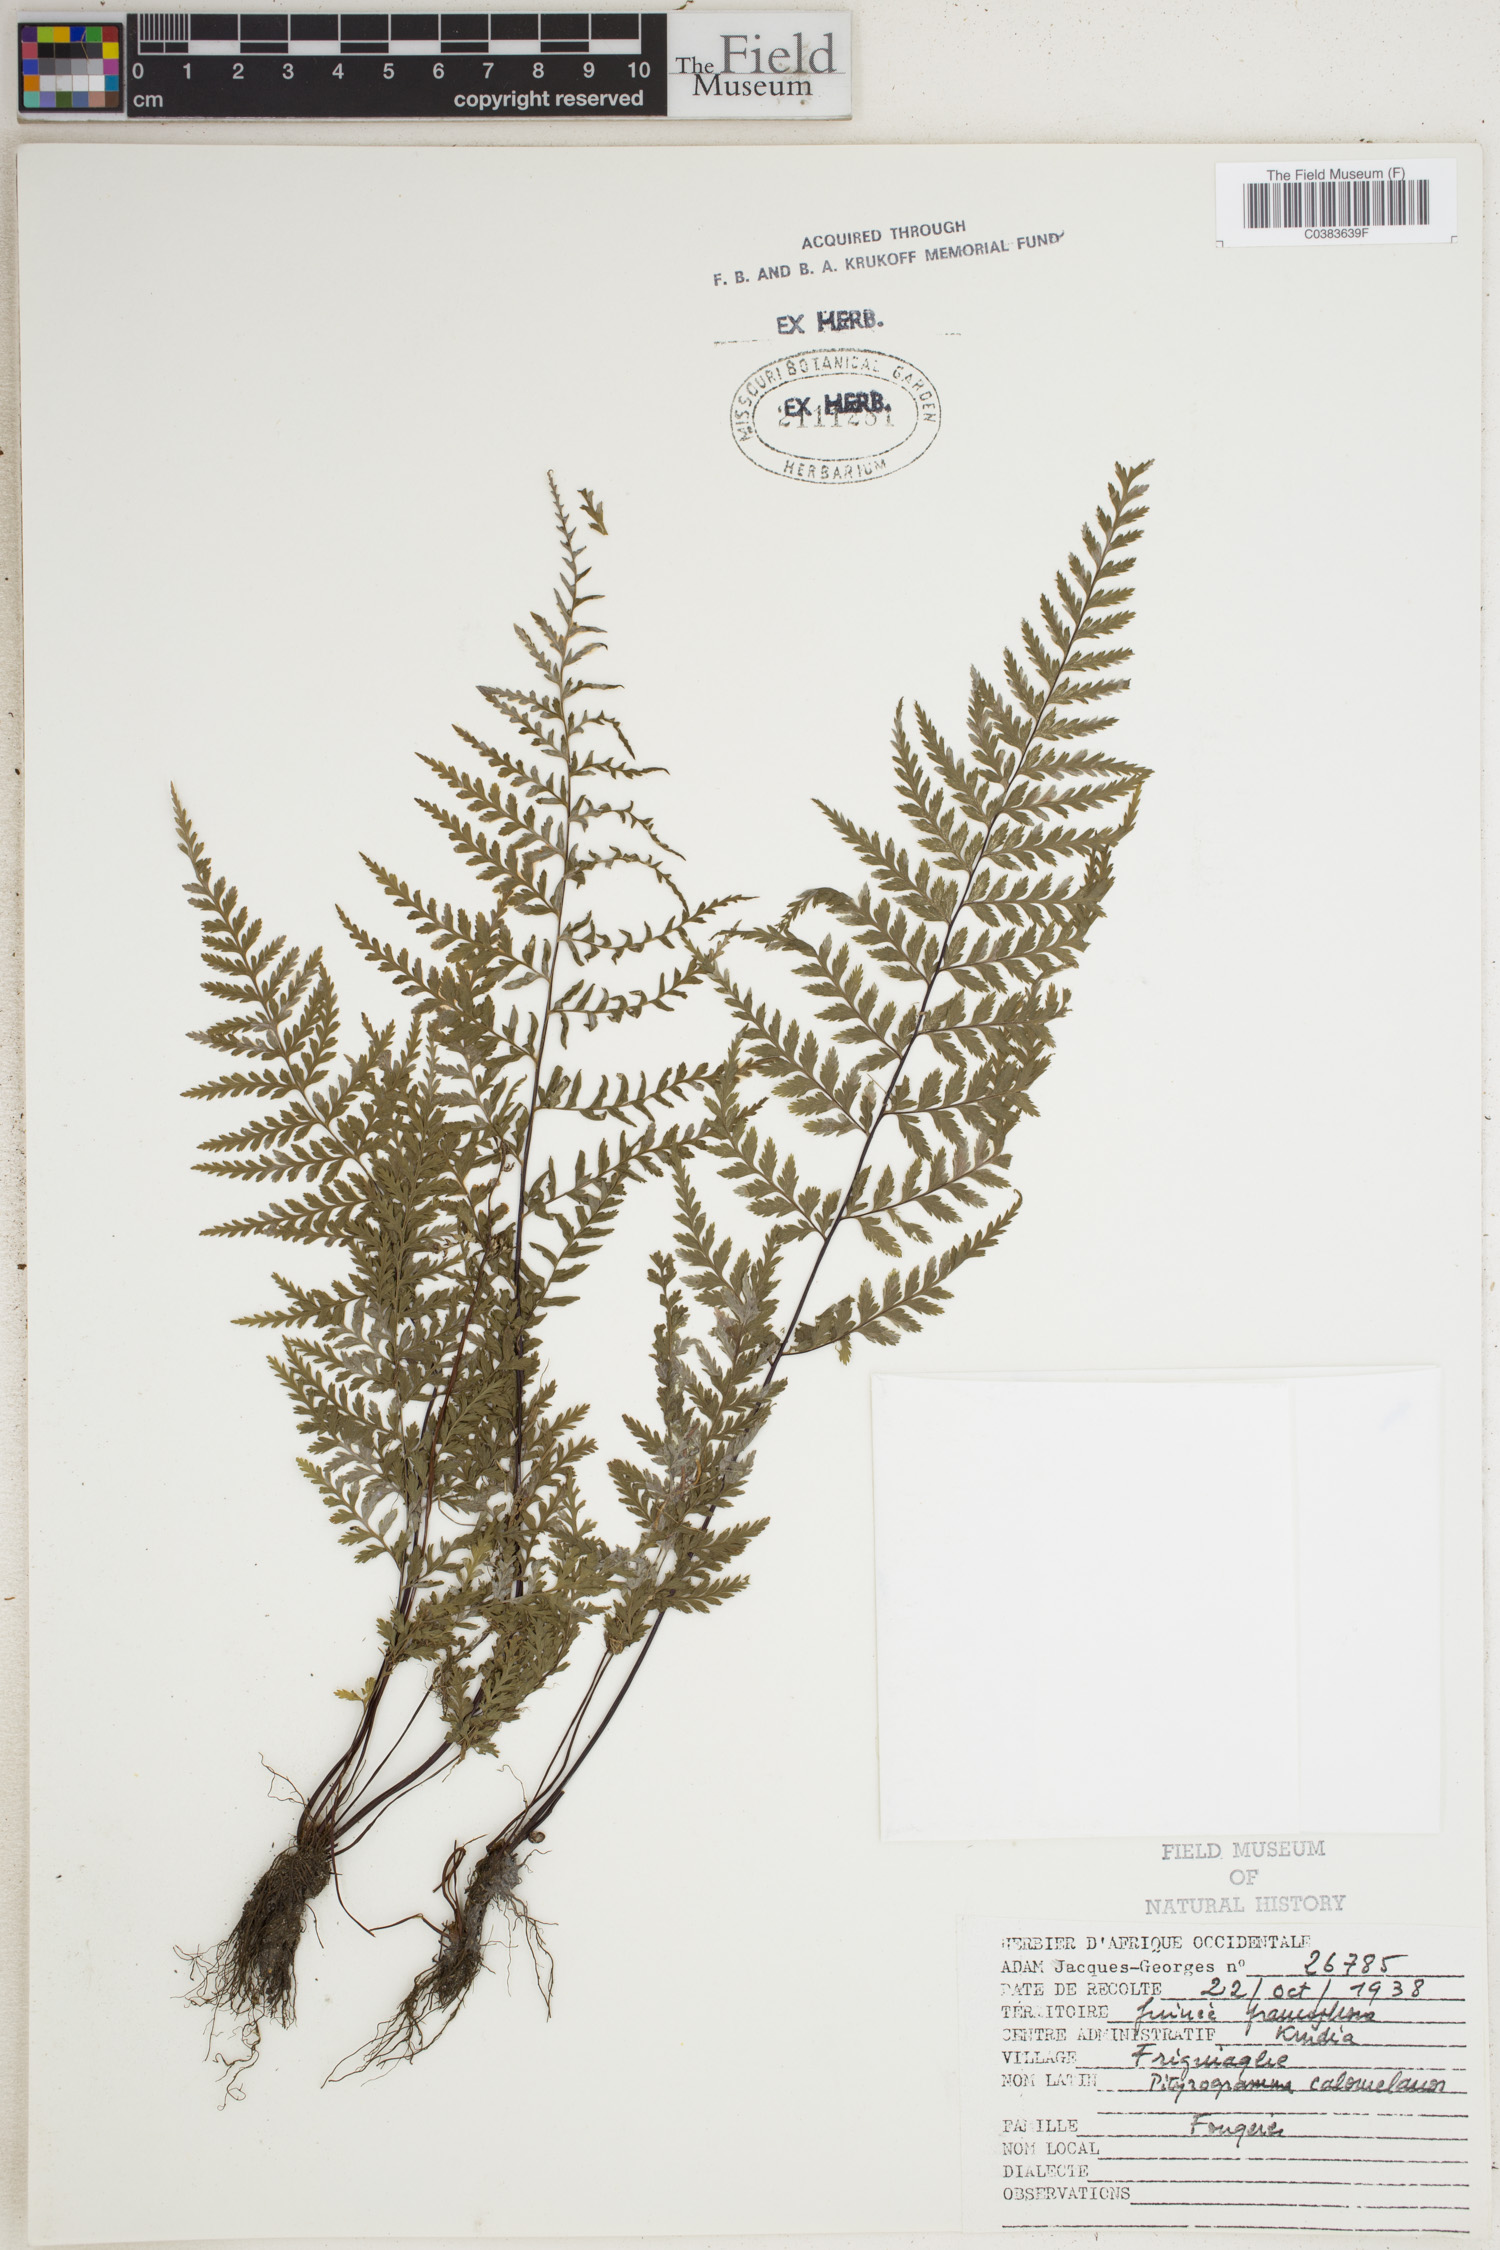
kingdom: Plantae
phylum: Tracheophyta
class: Polypodiopsida
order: Polypodiales
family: Pteridaceae
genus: Pityrogramma
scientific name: Pityrogramma calomelanos
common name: Dixie silverback fern
